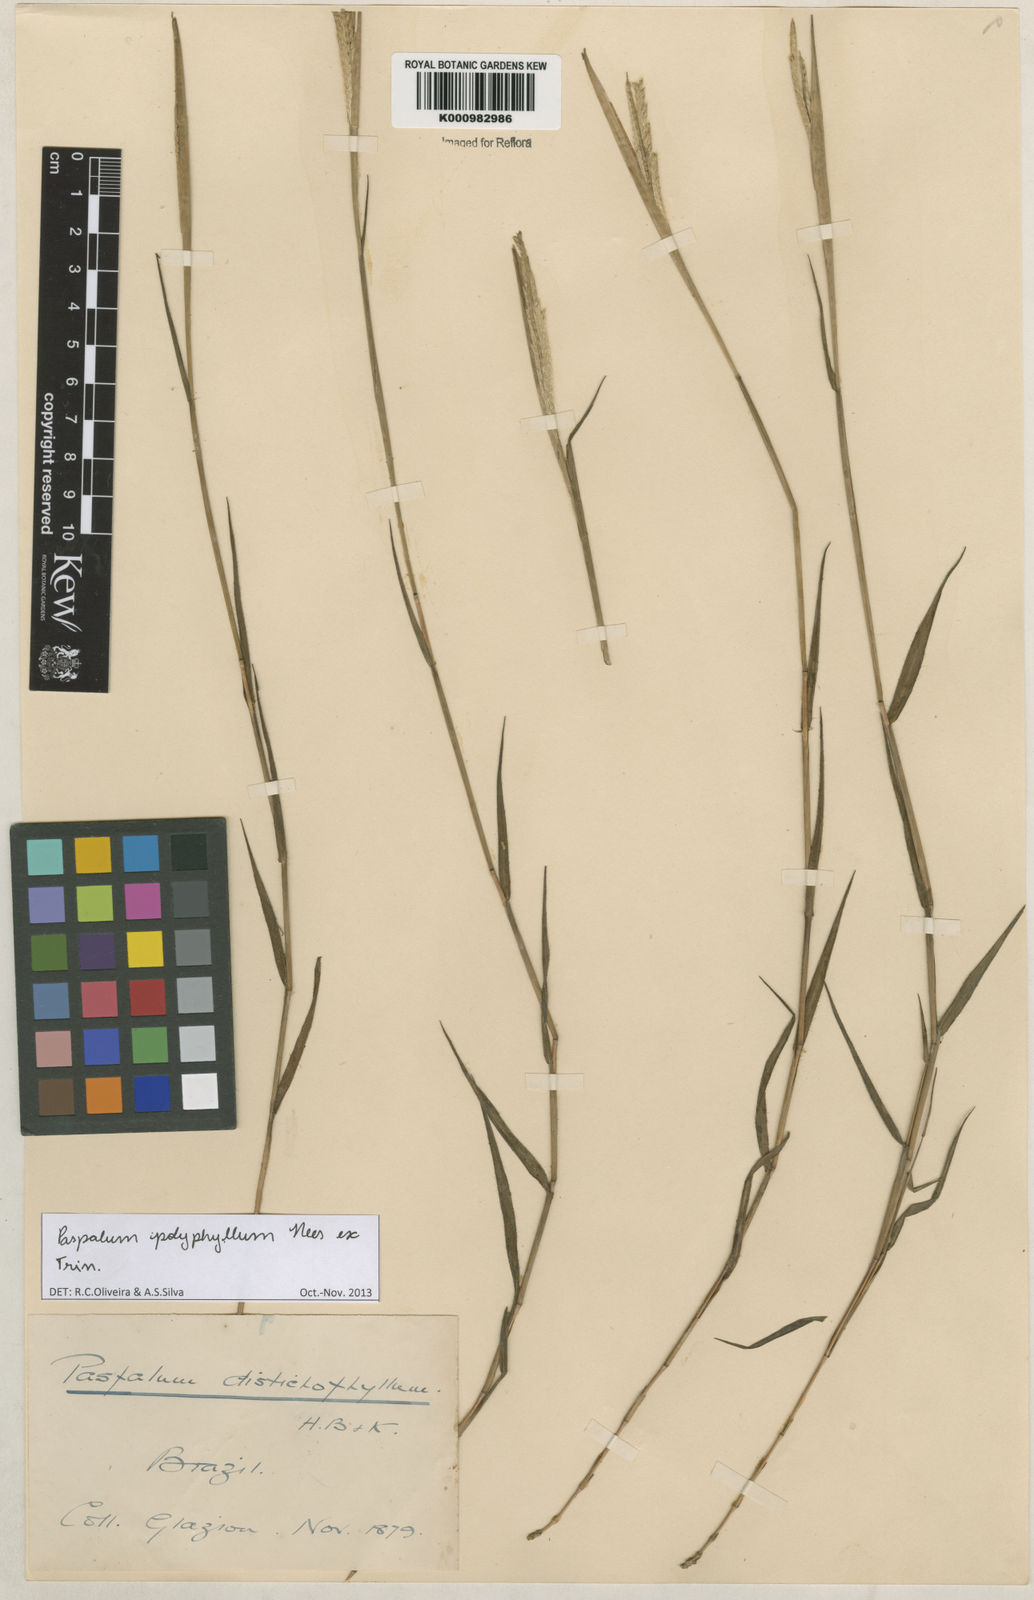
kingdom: Plantae
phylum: Tracheophyta
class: Liliopsida
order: Poales
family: Poaceae
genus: Paspalum
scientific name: Paspalum
